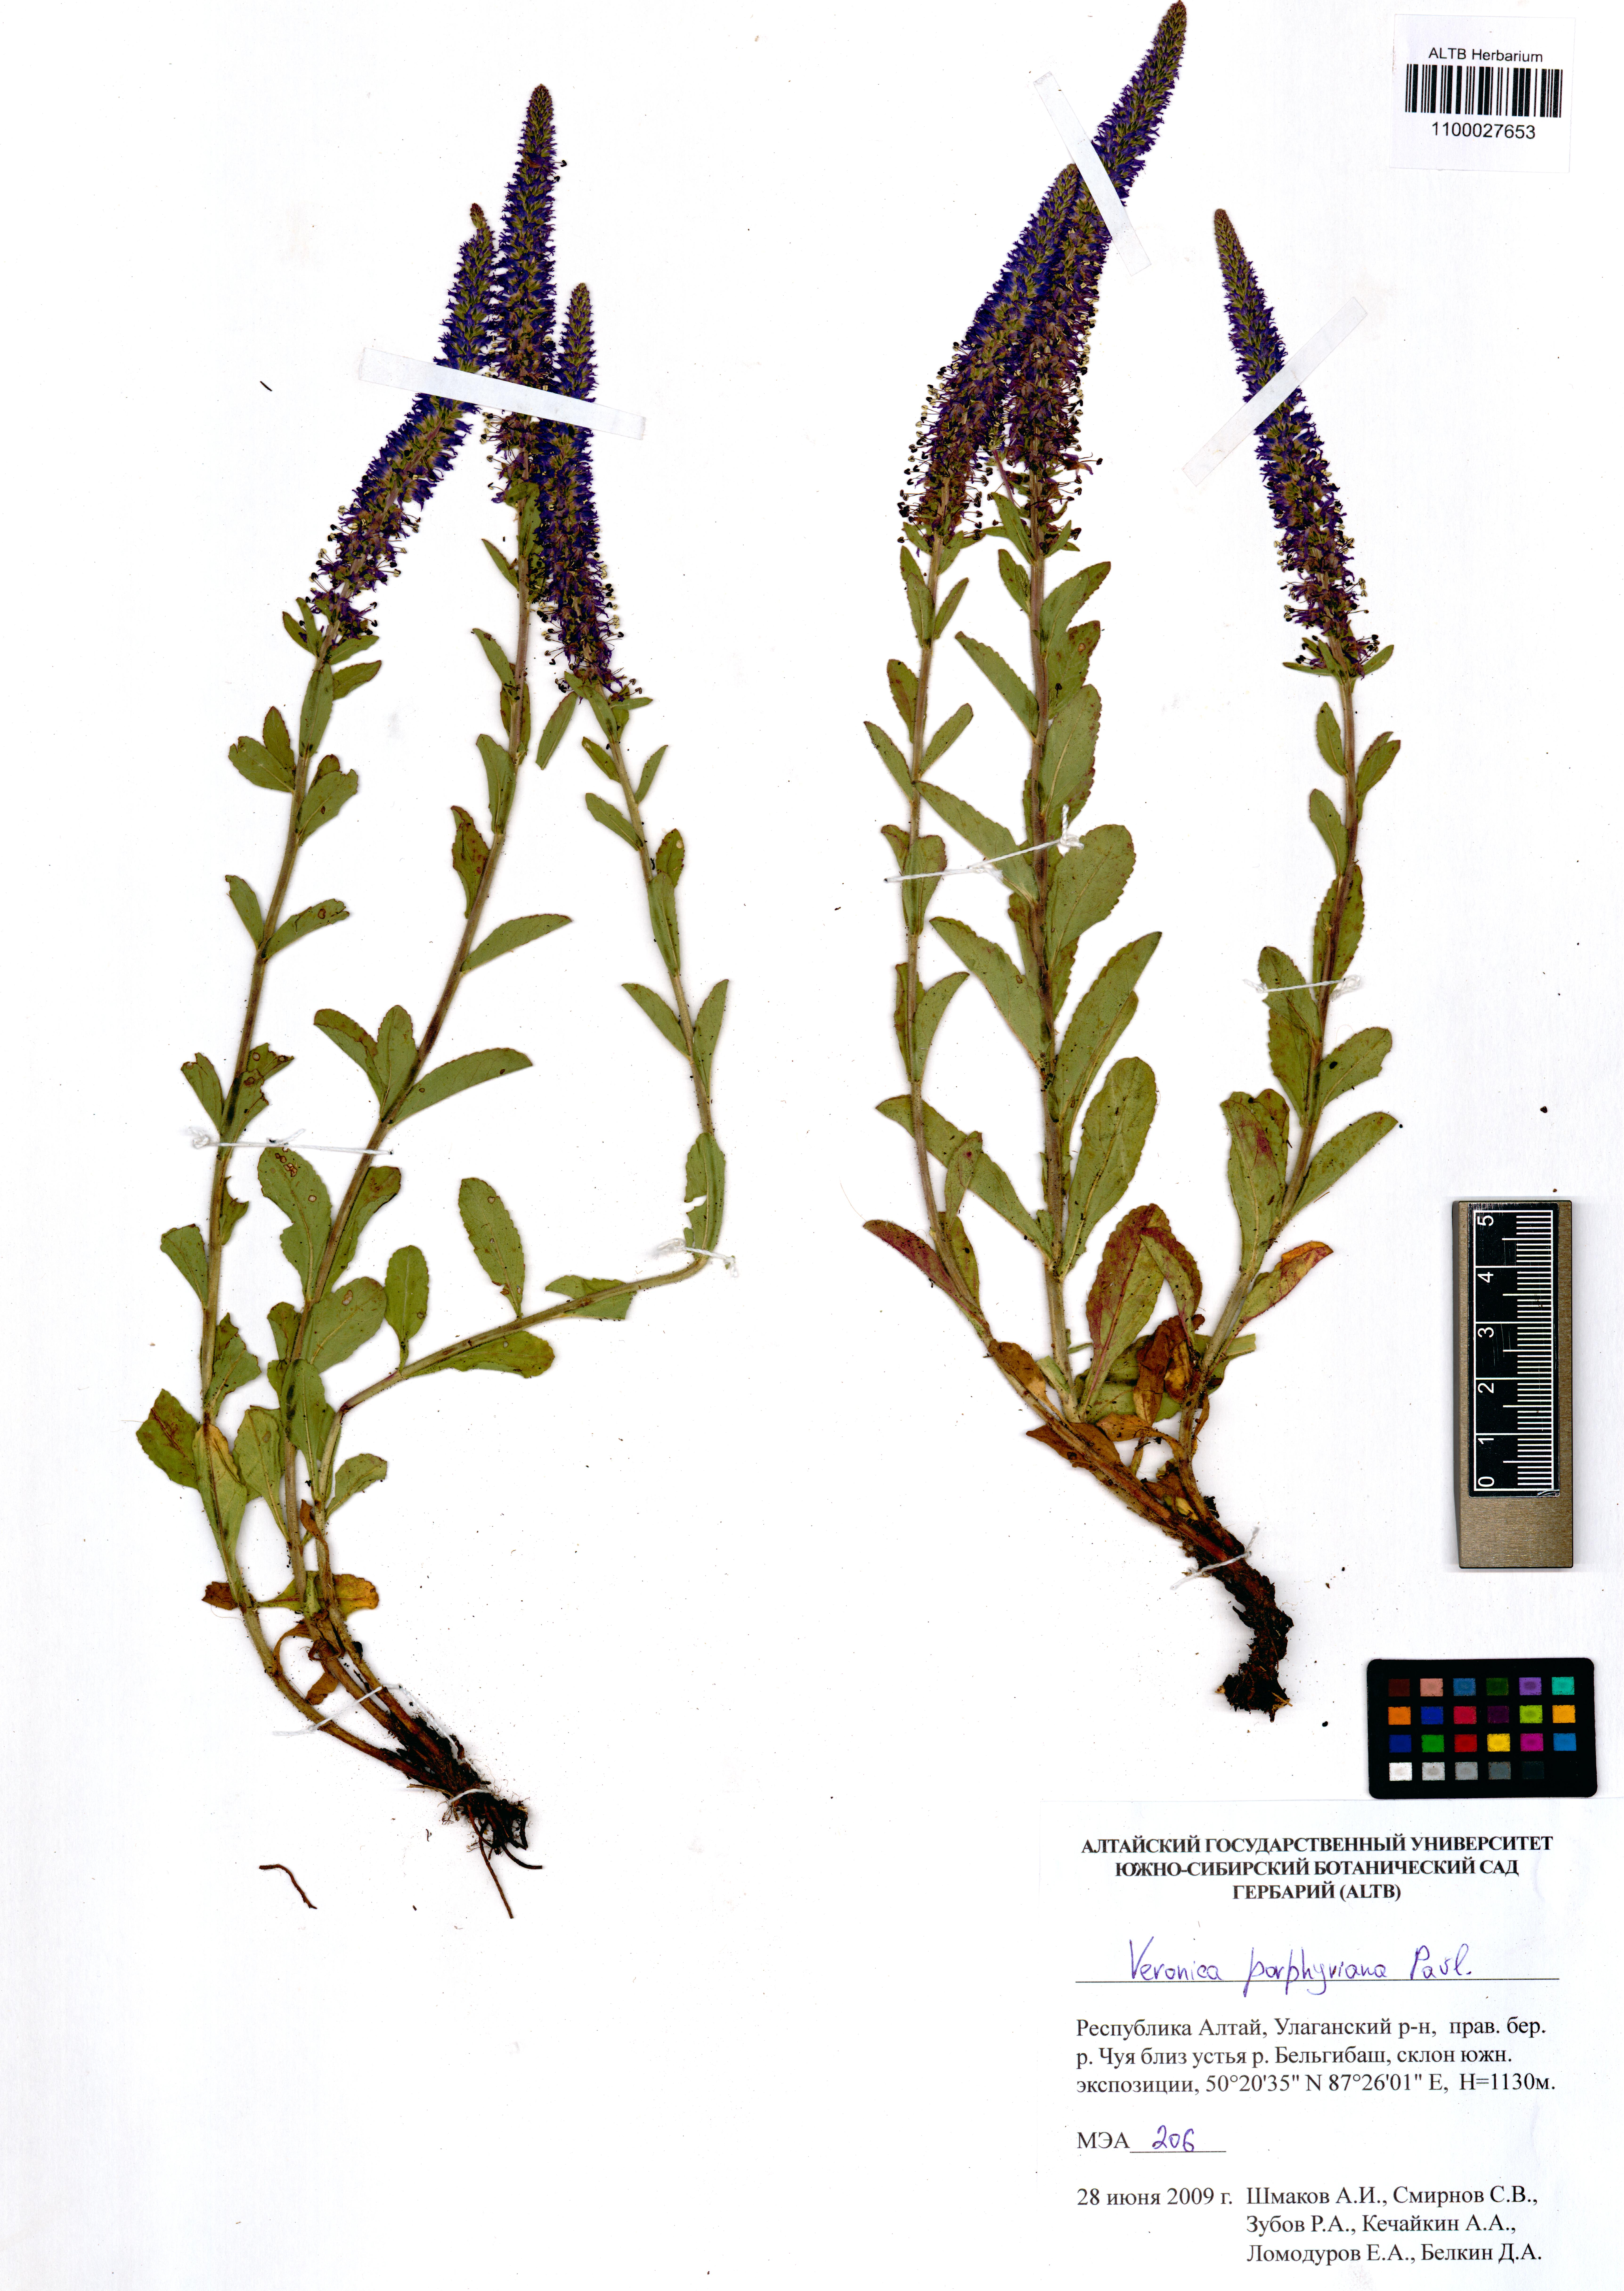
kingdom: Plantae
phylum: Tracheophyta
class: Magnoliopsida
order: Lamiales
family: Plantaginaceae
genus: Veronica
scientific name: Veronica porphyriana
